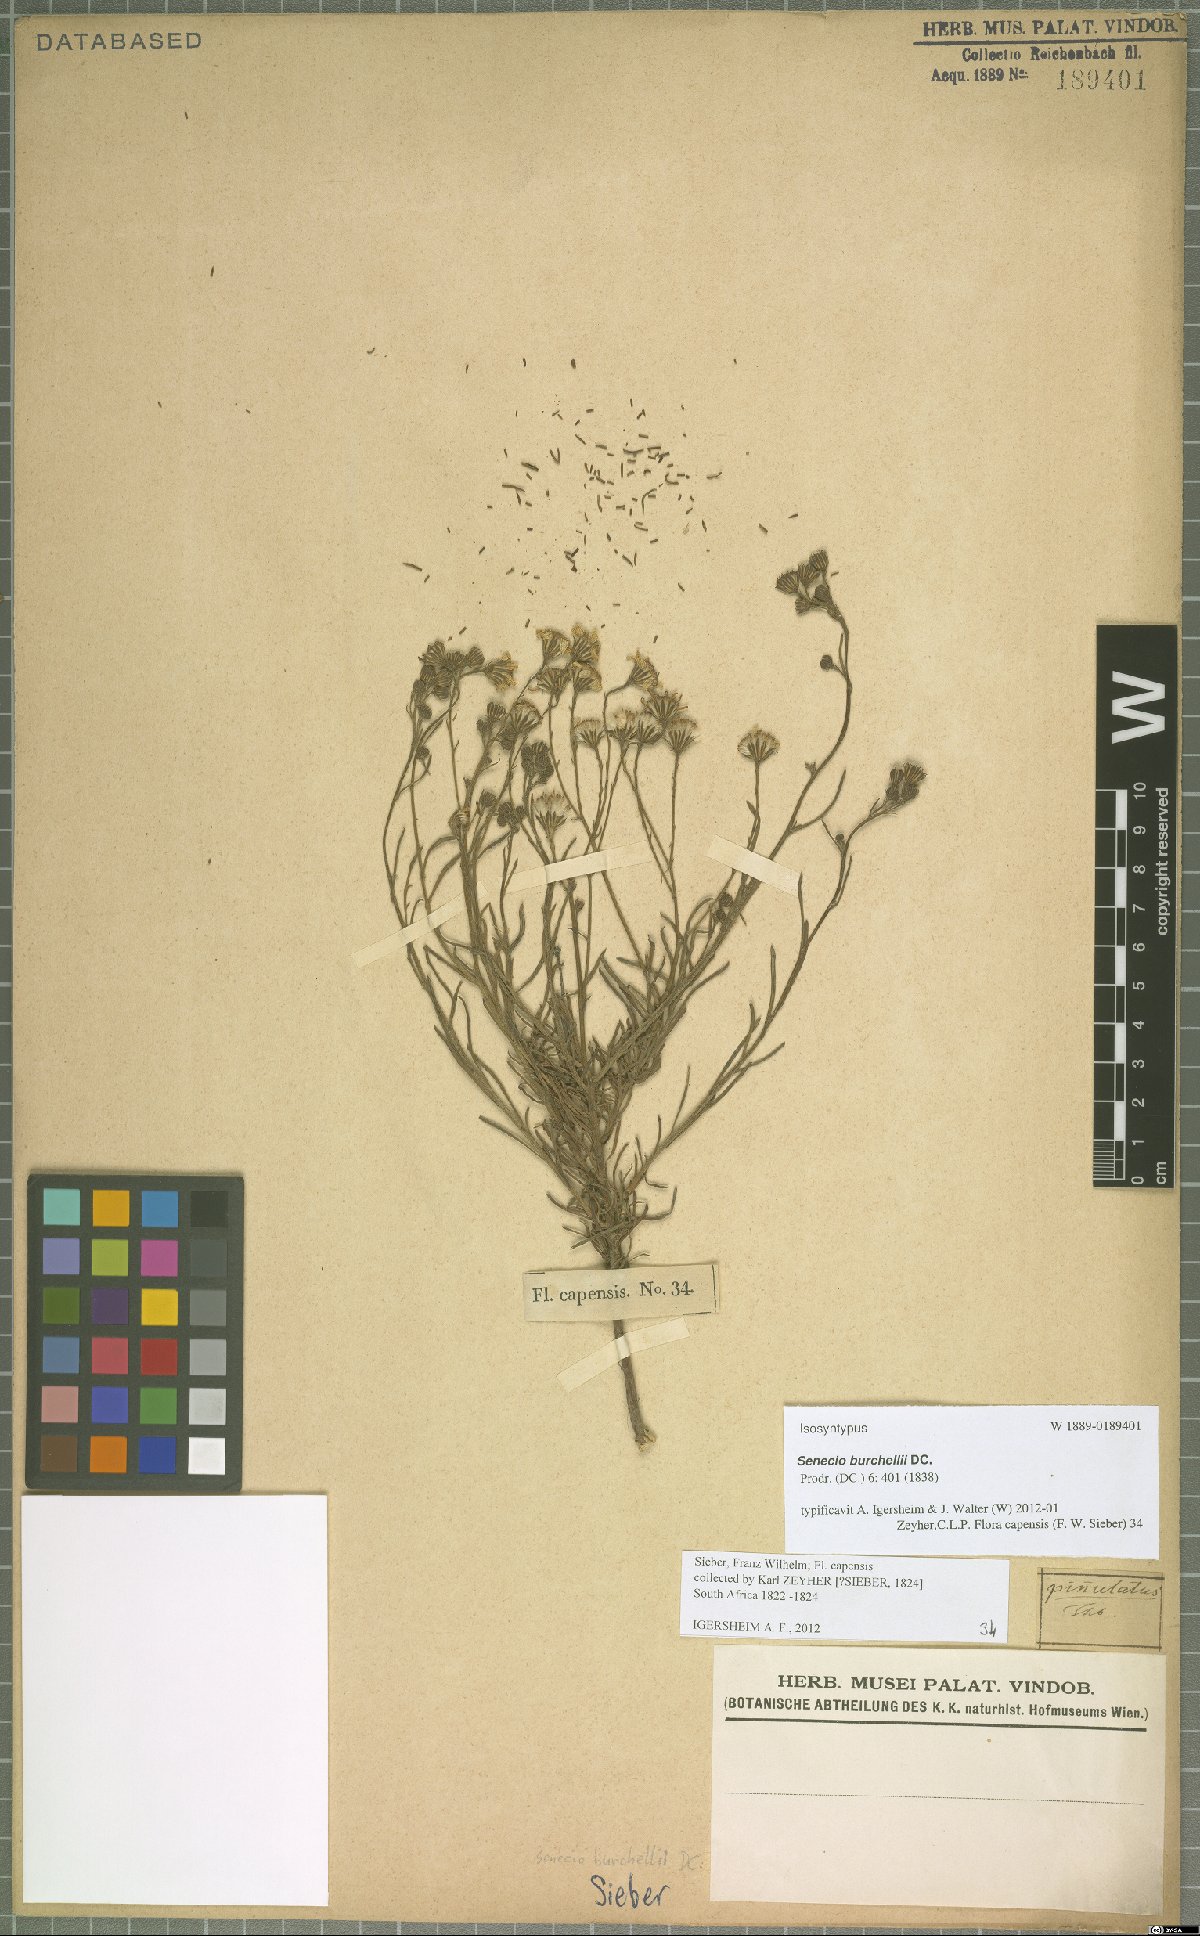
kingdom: Plantae
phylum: Tracheophyta
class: Magnoliopsida
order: Asterales
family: Asteraceae
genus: Senecio
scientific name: Senecio burchellii
